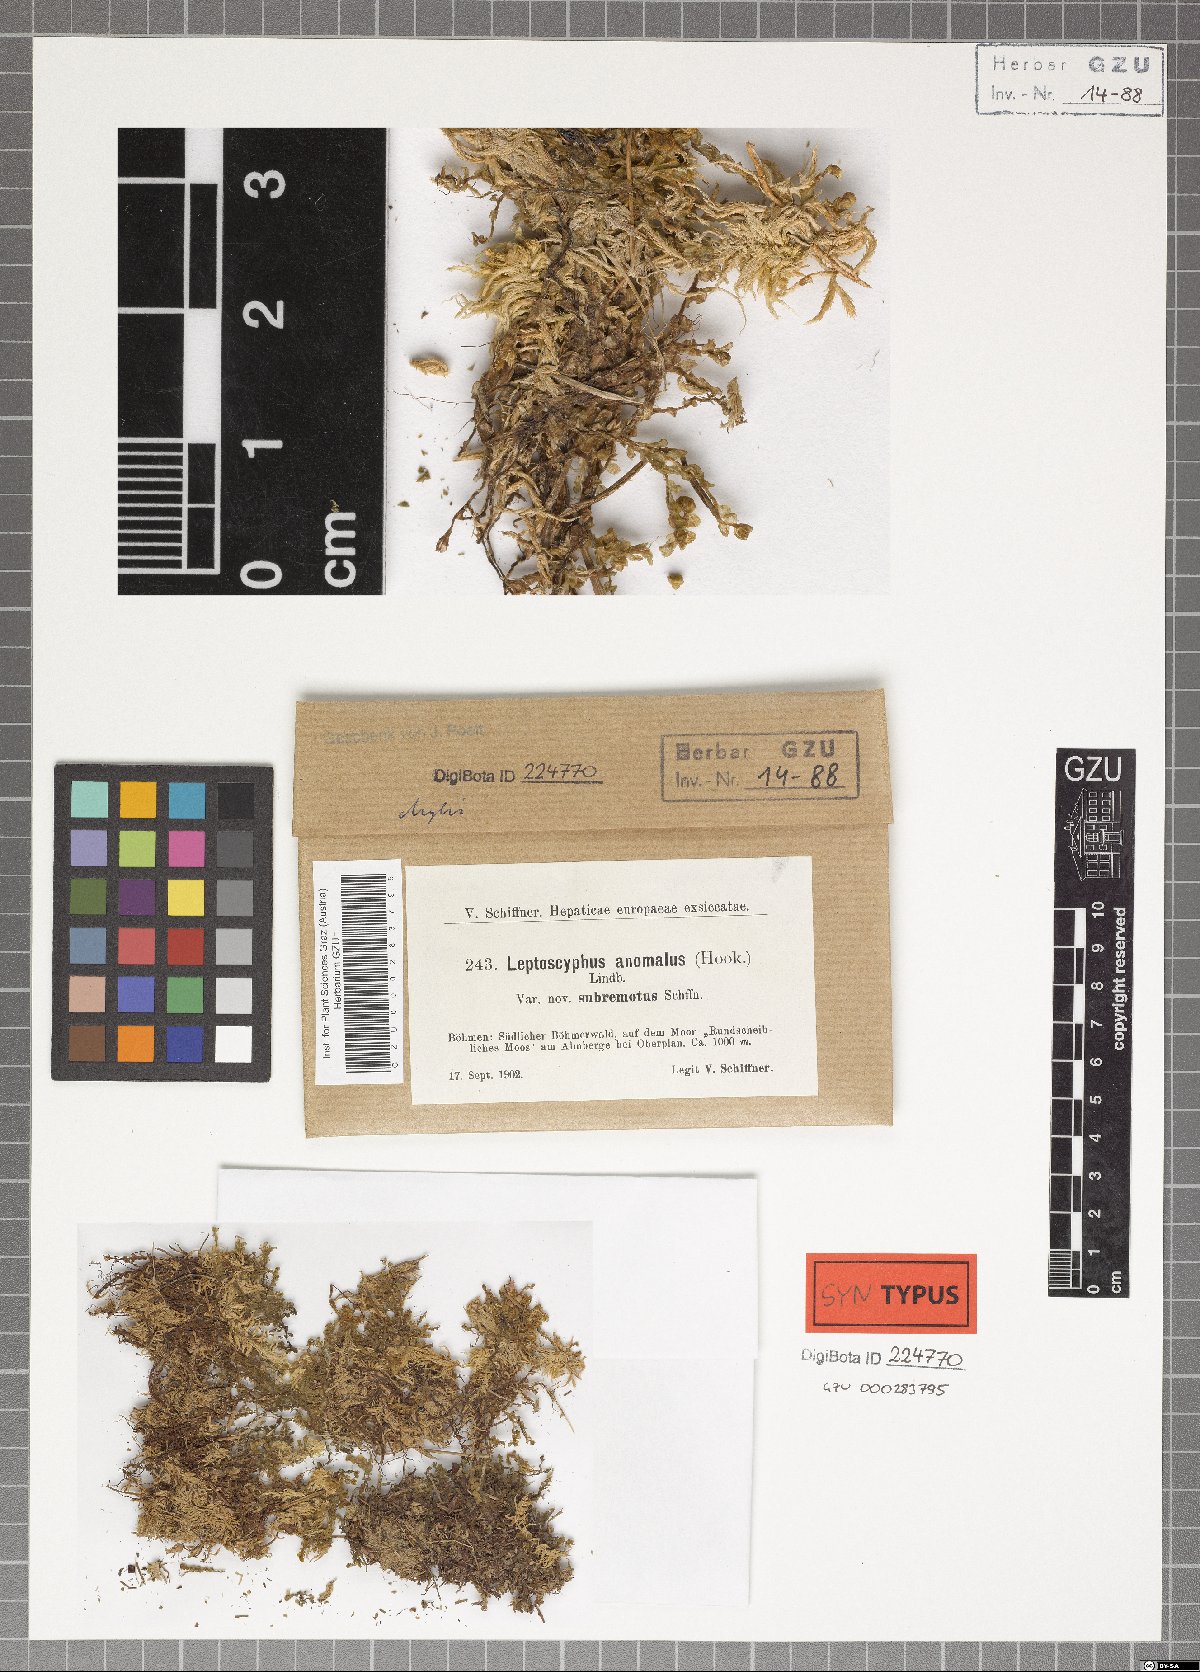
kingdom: Plantae
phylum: Marchantiophyta
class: Jungermanniopsida
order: Jungermanniales
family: Myliaceae
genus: Mylia
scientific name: Mylia anomala
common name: Anomalous flapwort
